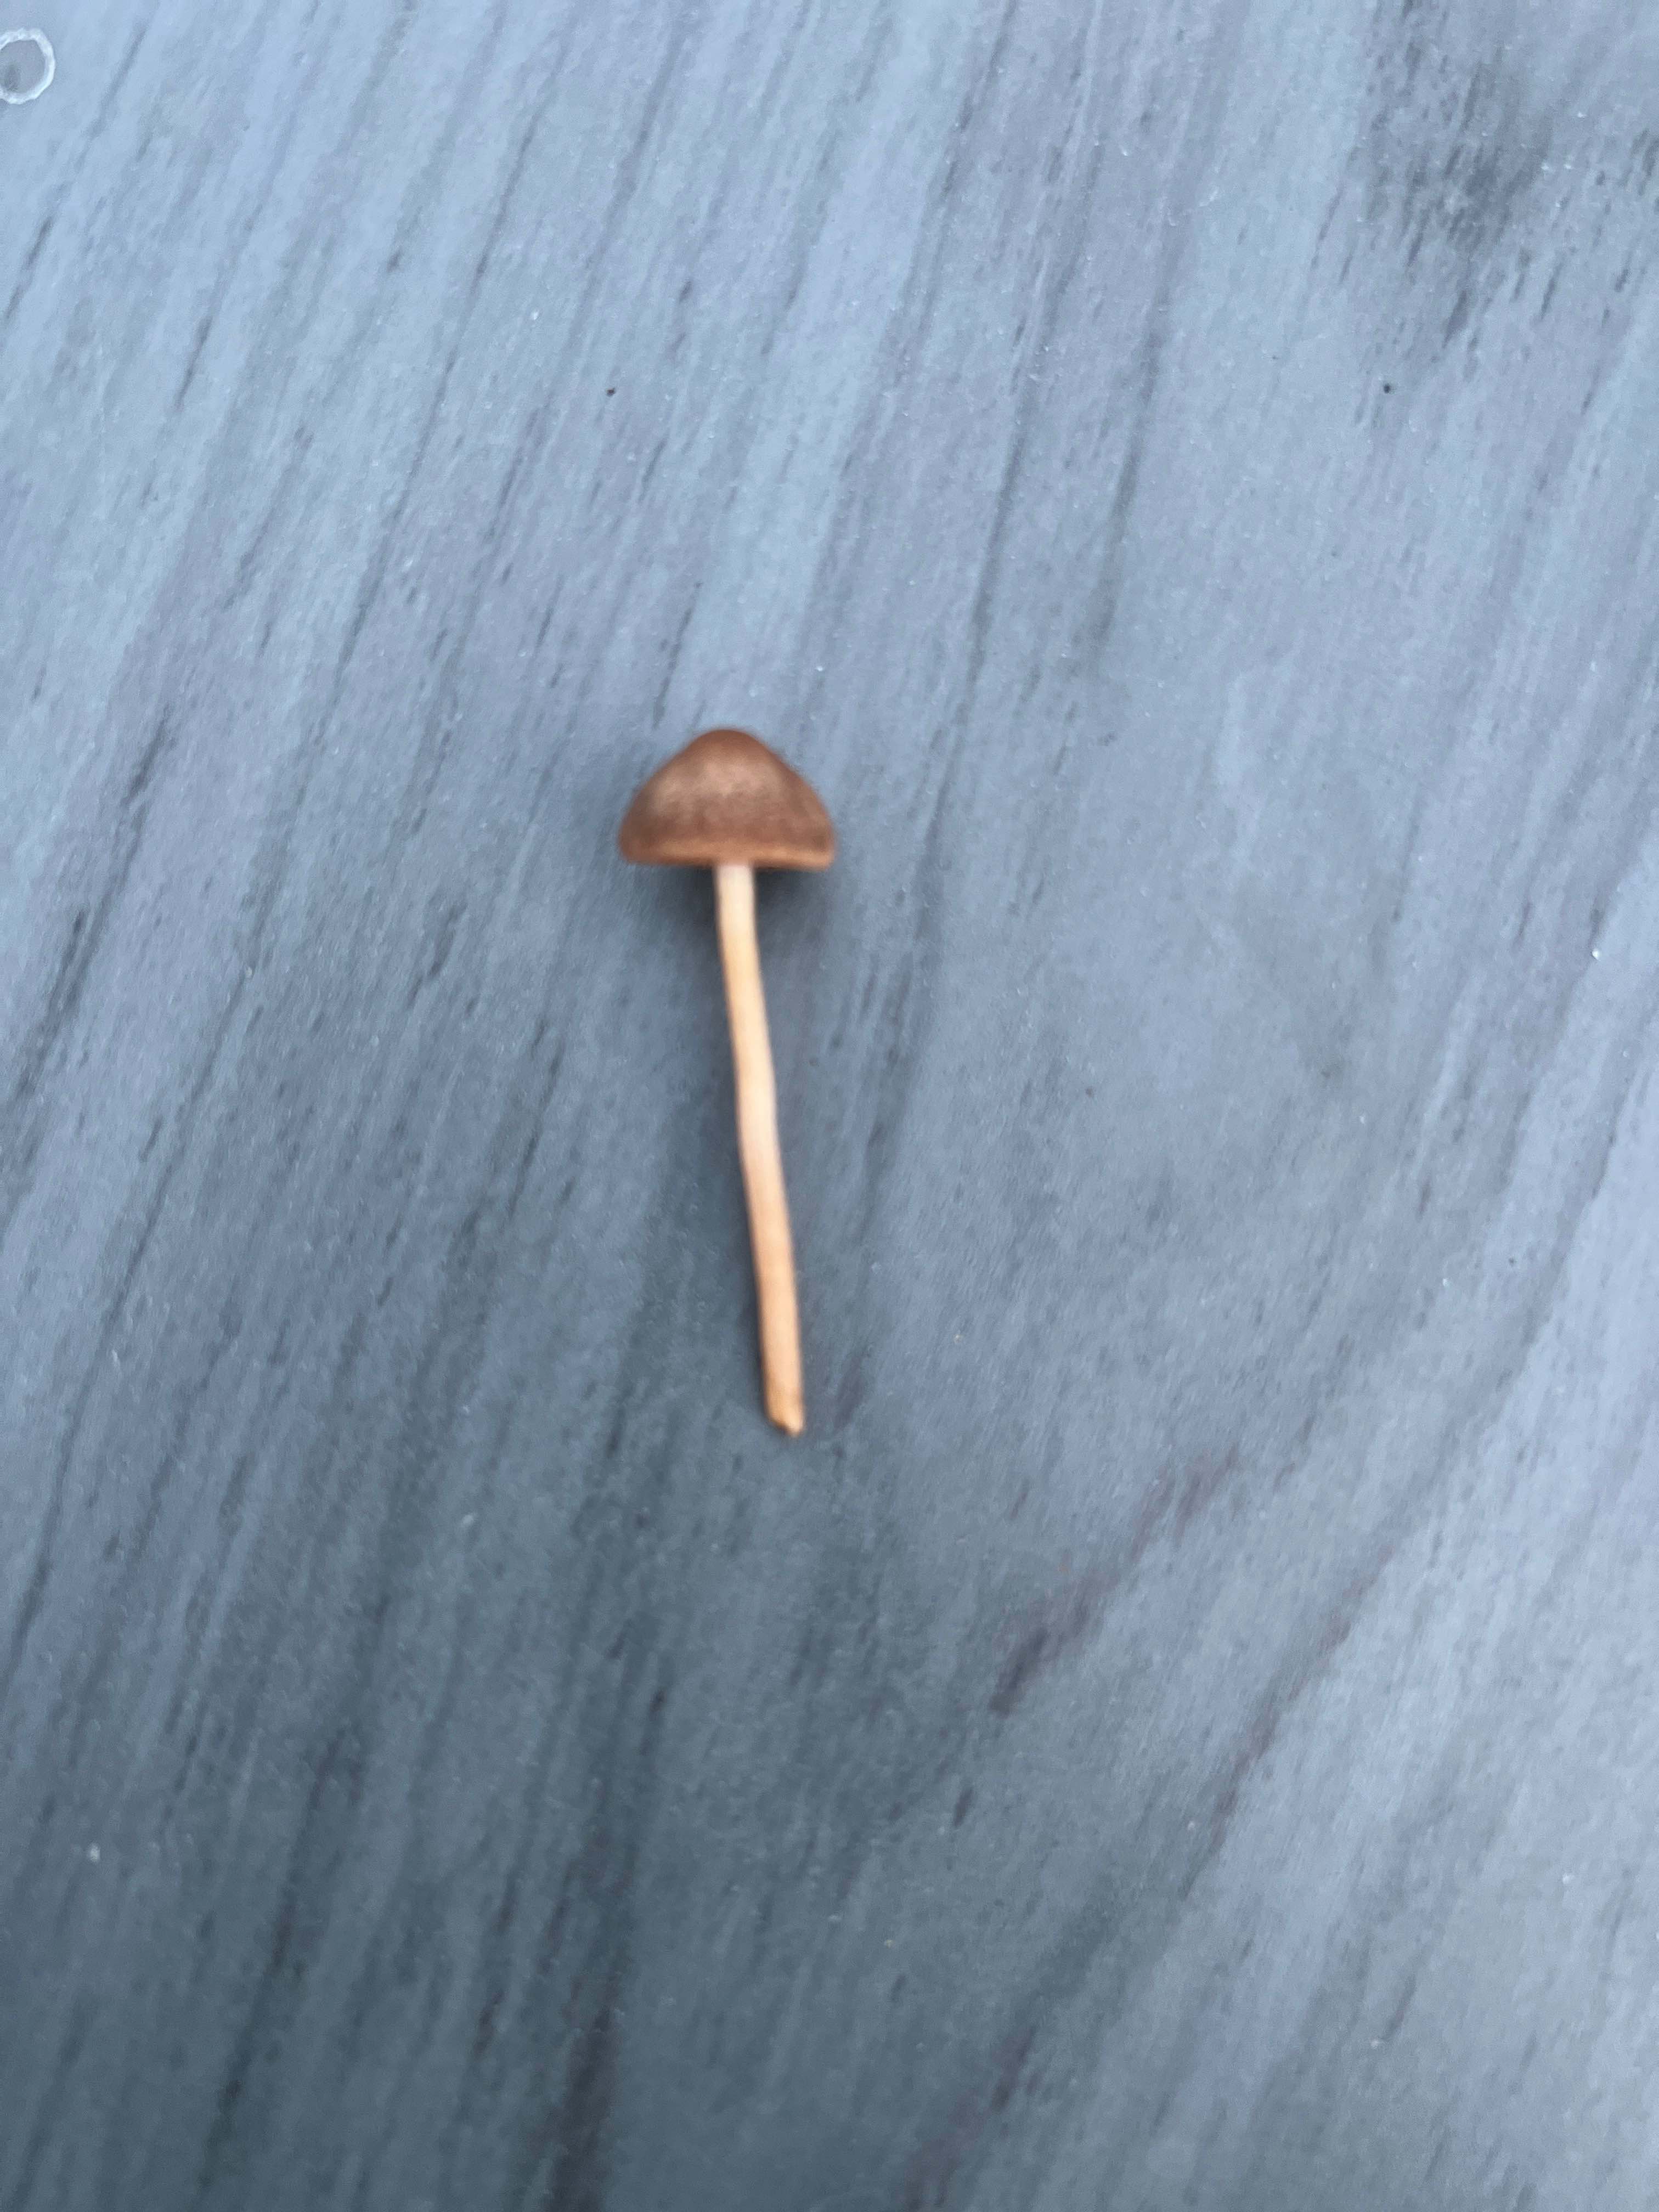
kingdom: Fungi
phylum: Basidiomycota
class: Agaricomycetes
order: Agaricales
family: Bolbitiaceae
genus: Panaeolina
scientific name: Panaeolina foenisecii
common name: høslætsvamp
